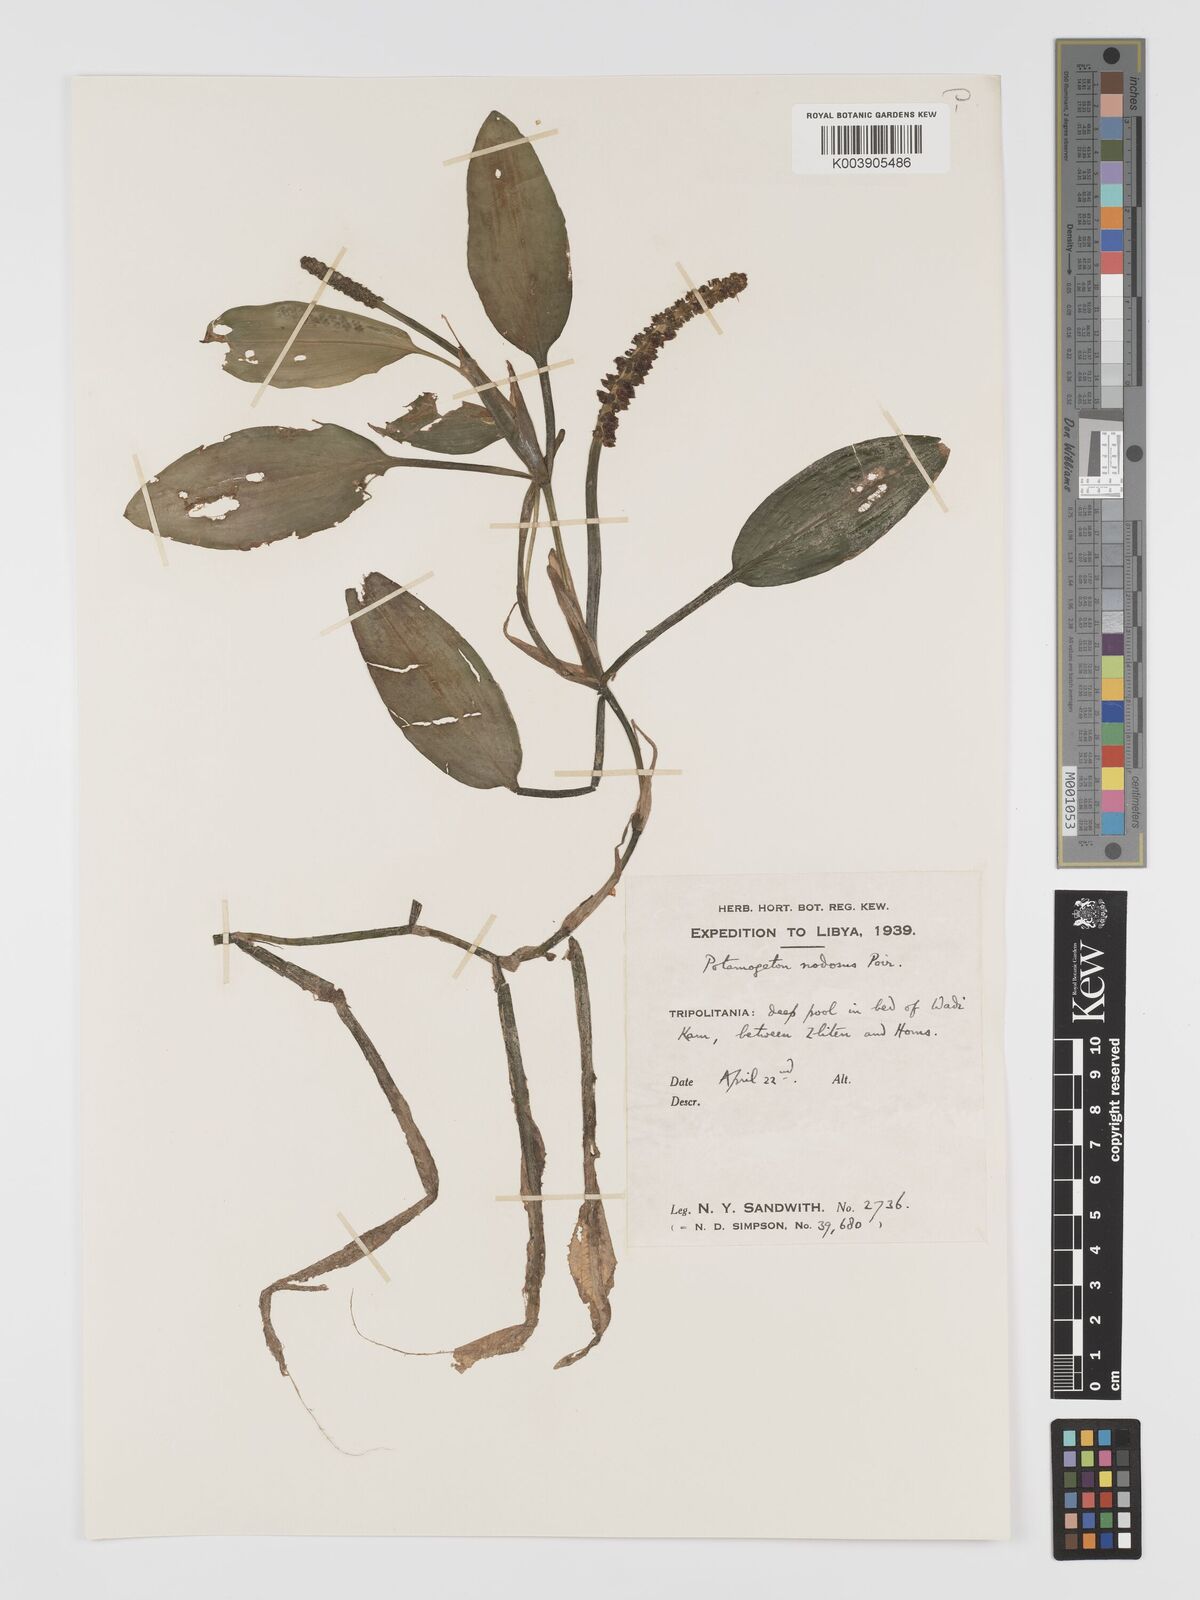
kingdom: Plantae
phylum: Tracheophyta
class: Liliopsida
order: Alismatales
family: Potamogetonaceae
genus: Potamogeton
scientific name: Potamogeton nodosus
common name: Loddon pondweed
